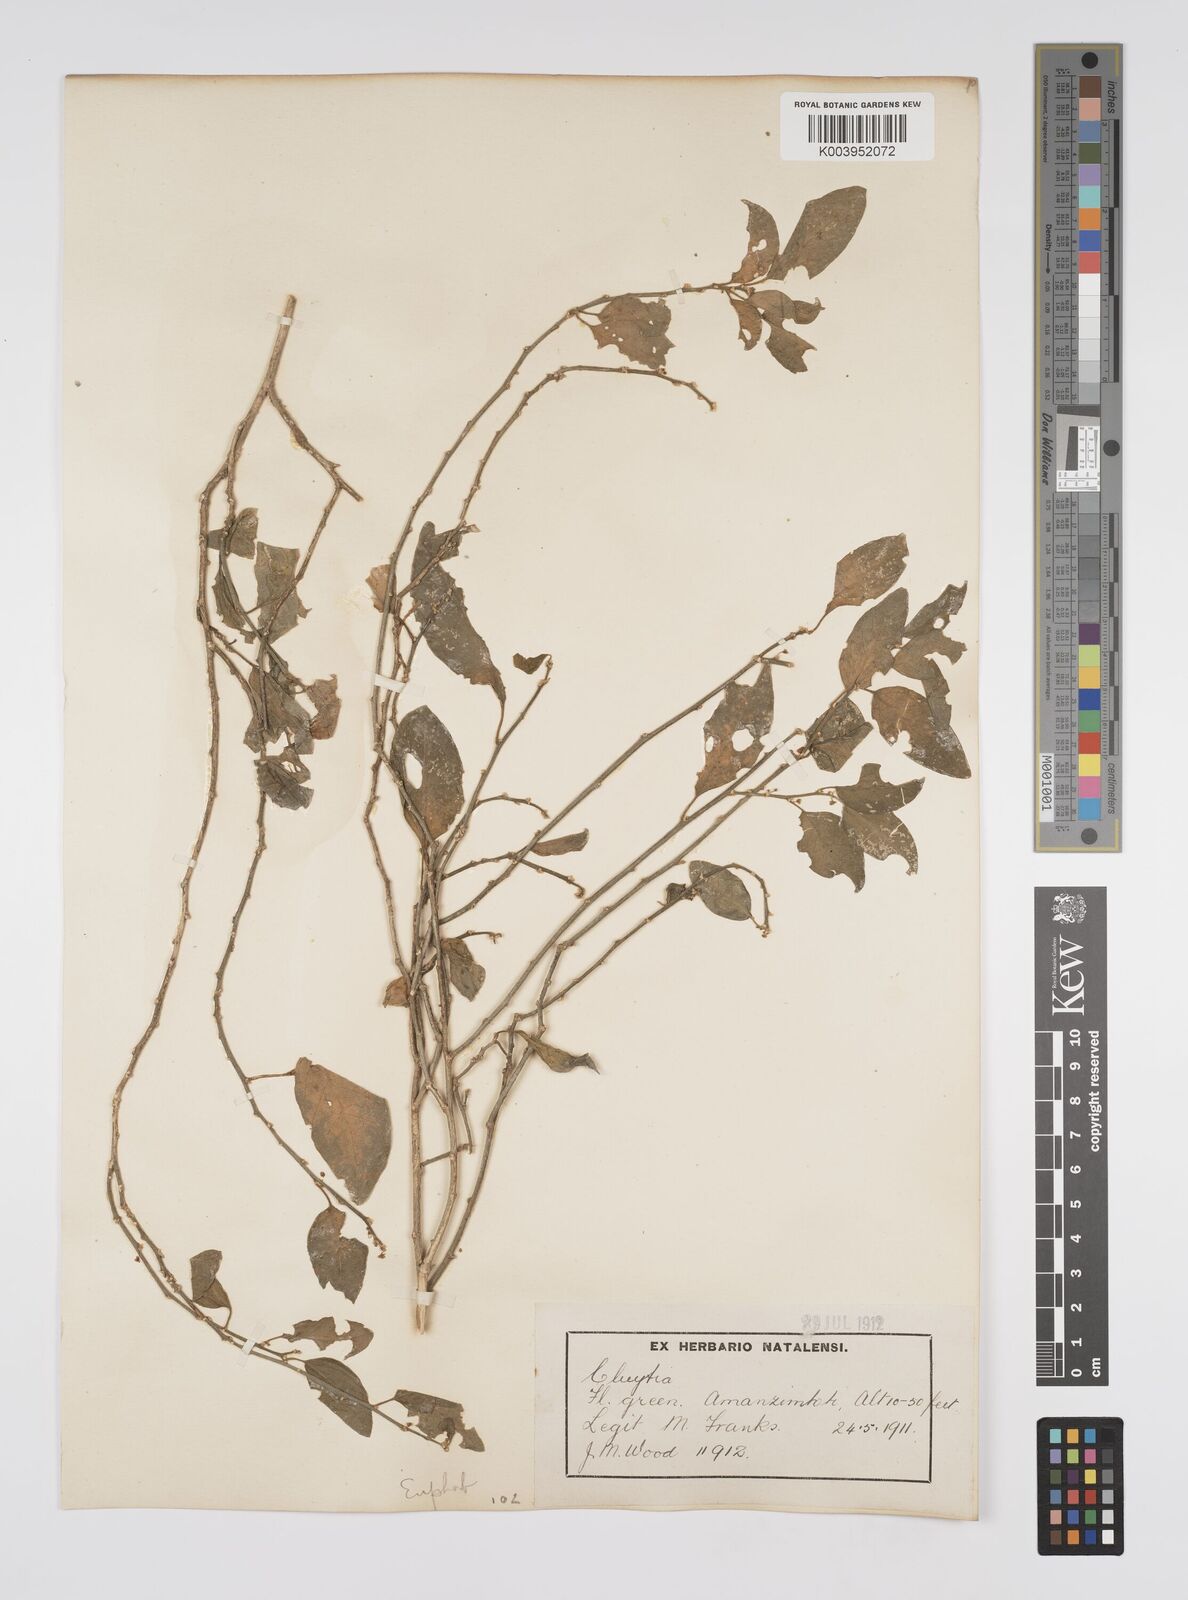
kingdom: Plantae
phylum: Tracheophyta
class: Magnoliopsida
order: Malpighiales
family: Peraceae
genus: Clutia
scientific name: Clutia
